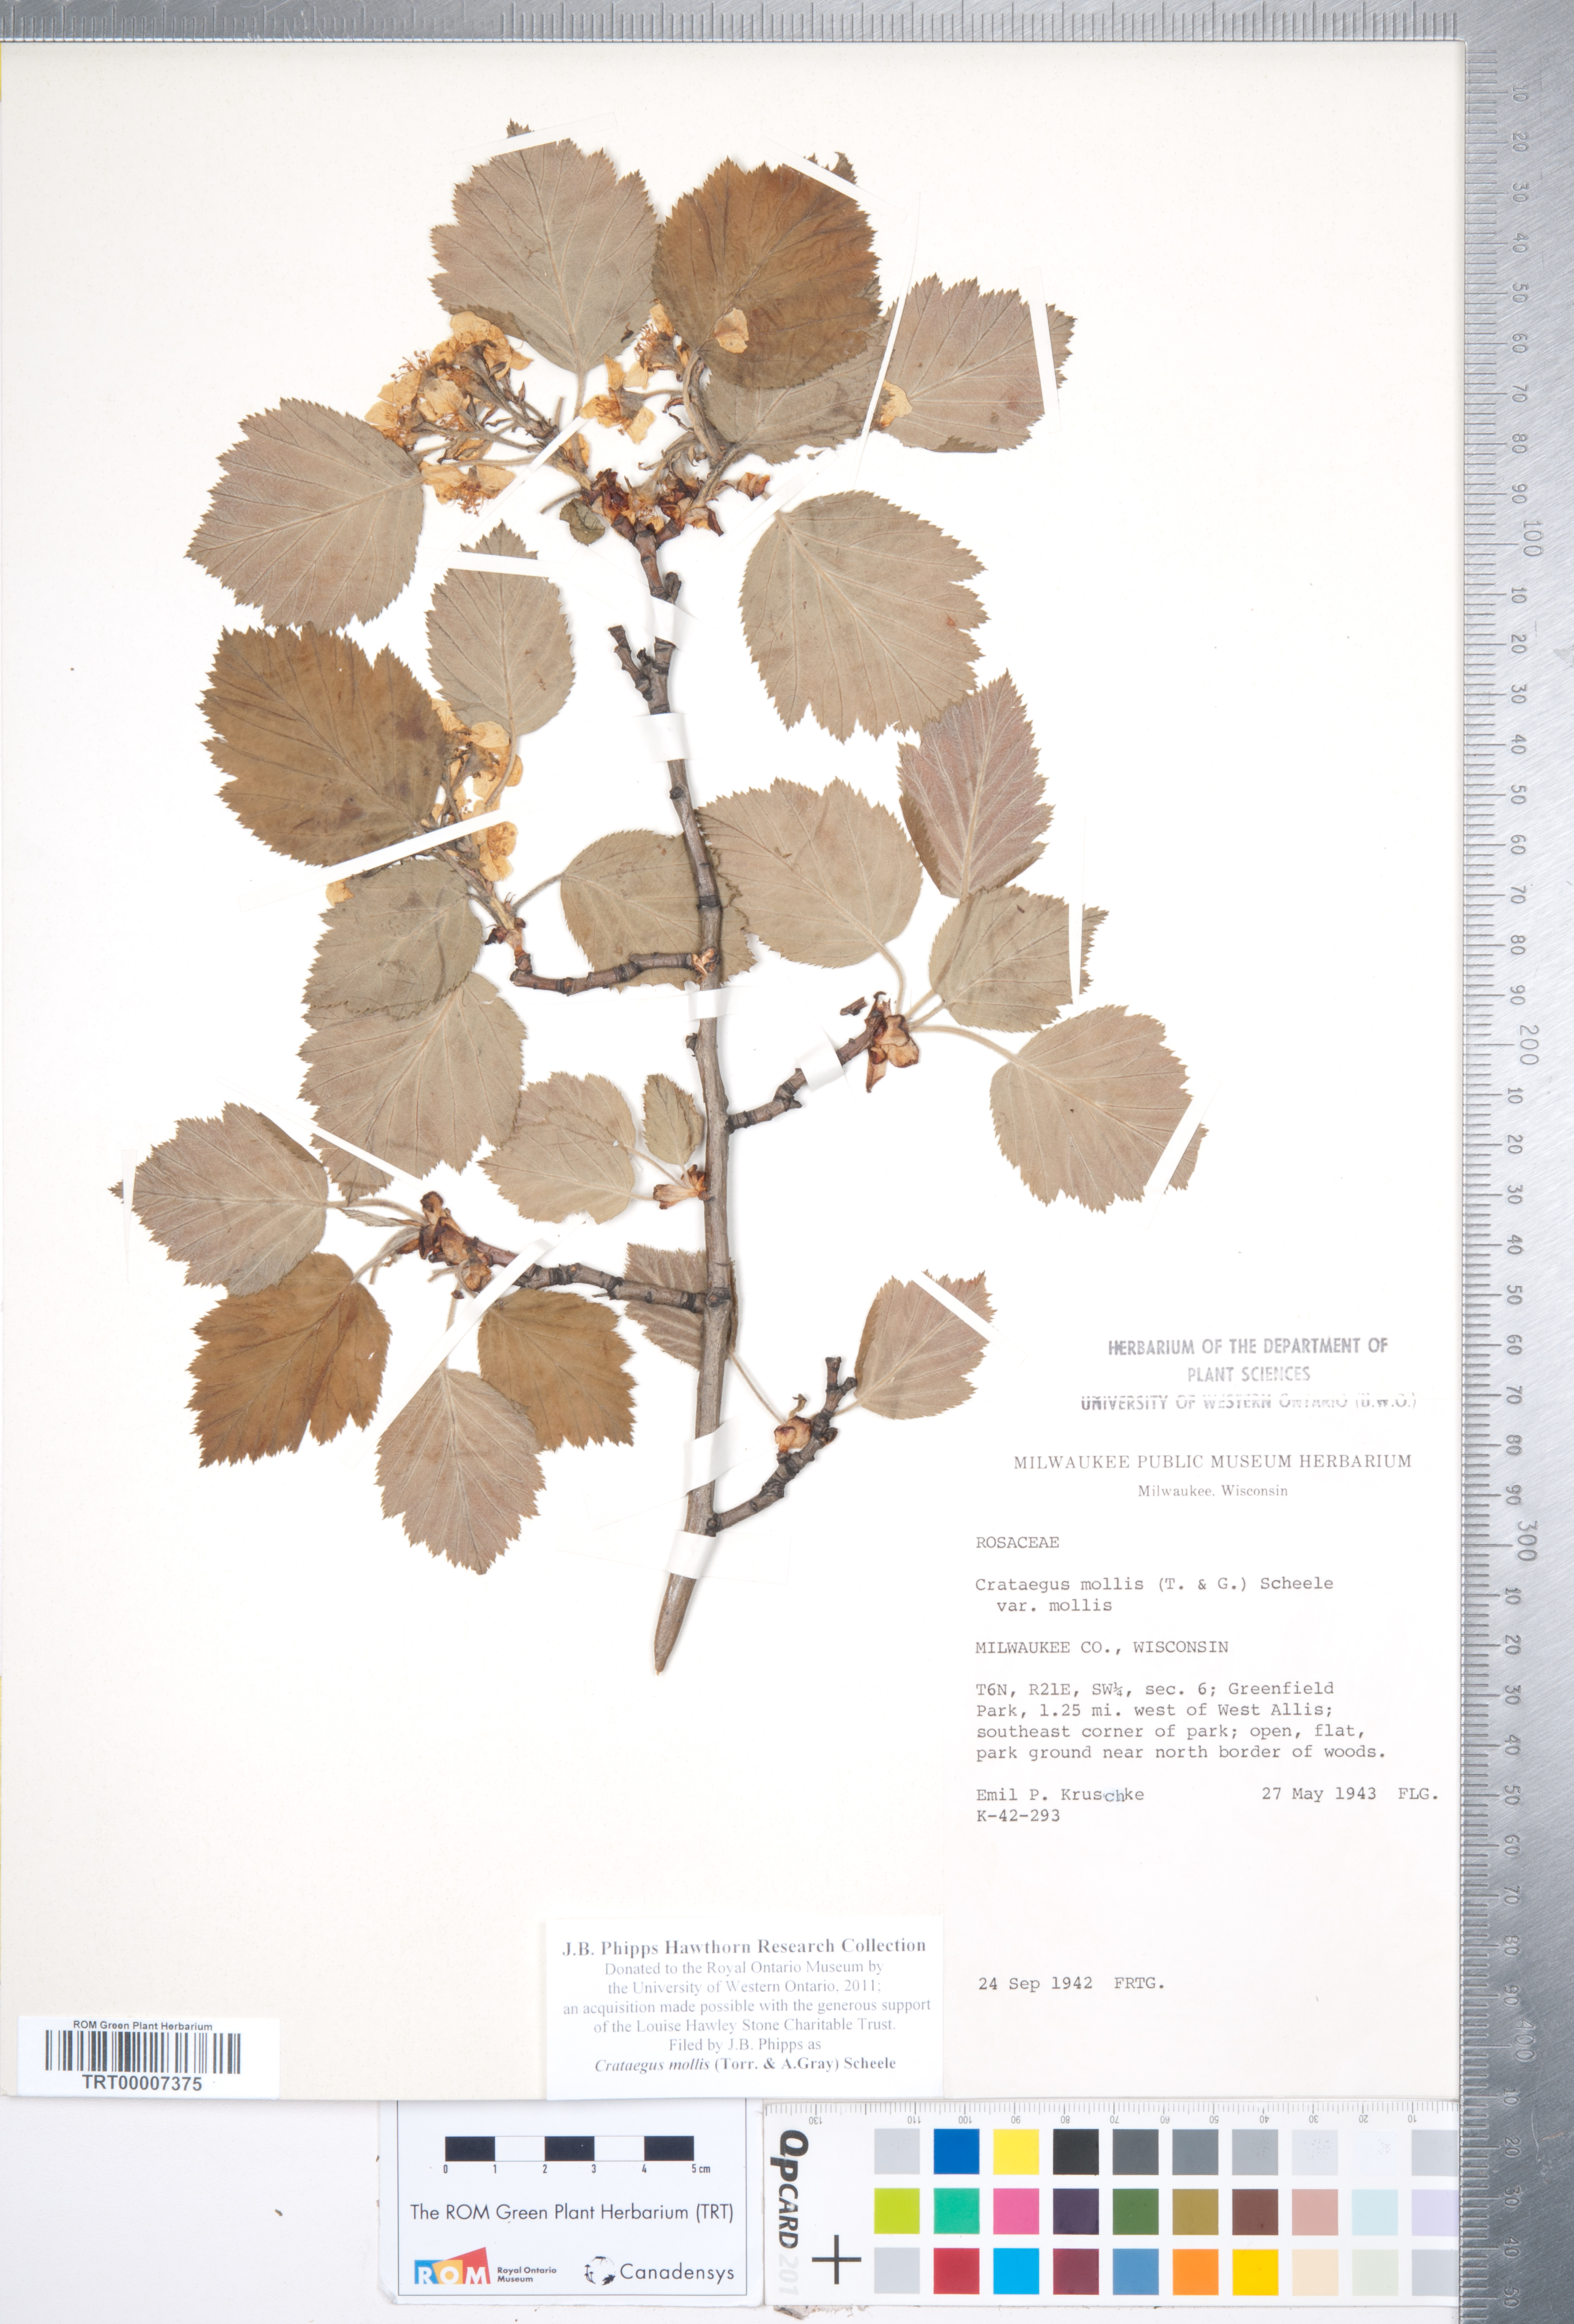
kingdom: Plantae
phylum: Tracheophyta
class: Magnoliopsida
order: Rosales
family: Rosaceae
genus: Crataegus
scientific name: Crataegus mollis
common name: Downy hawthorn
